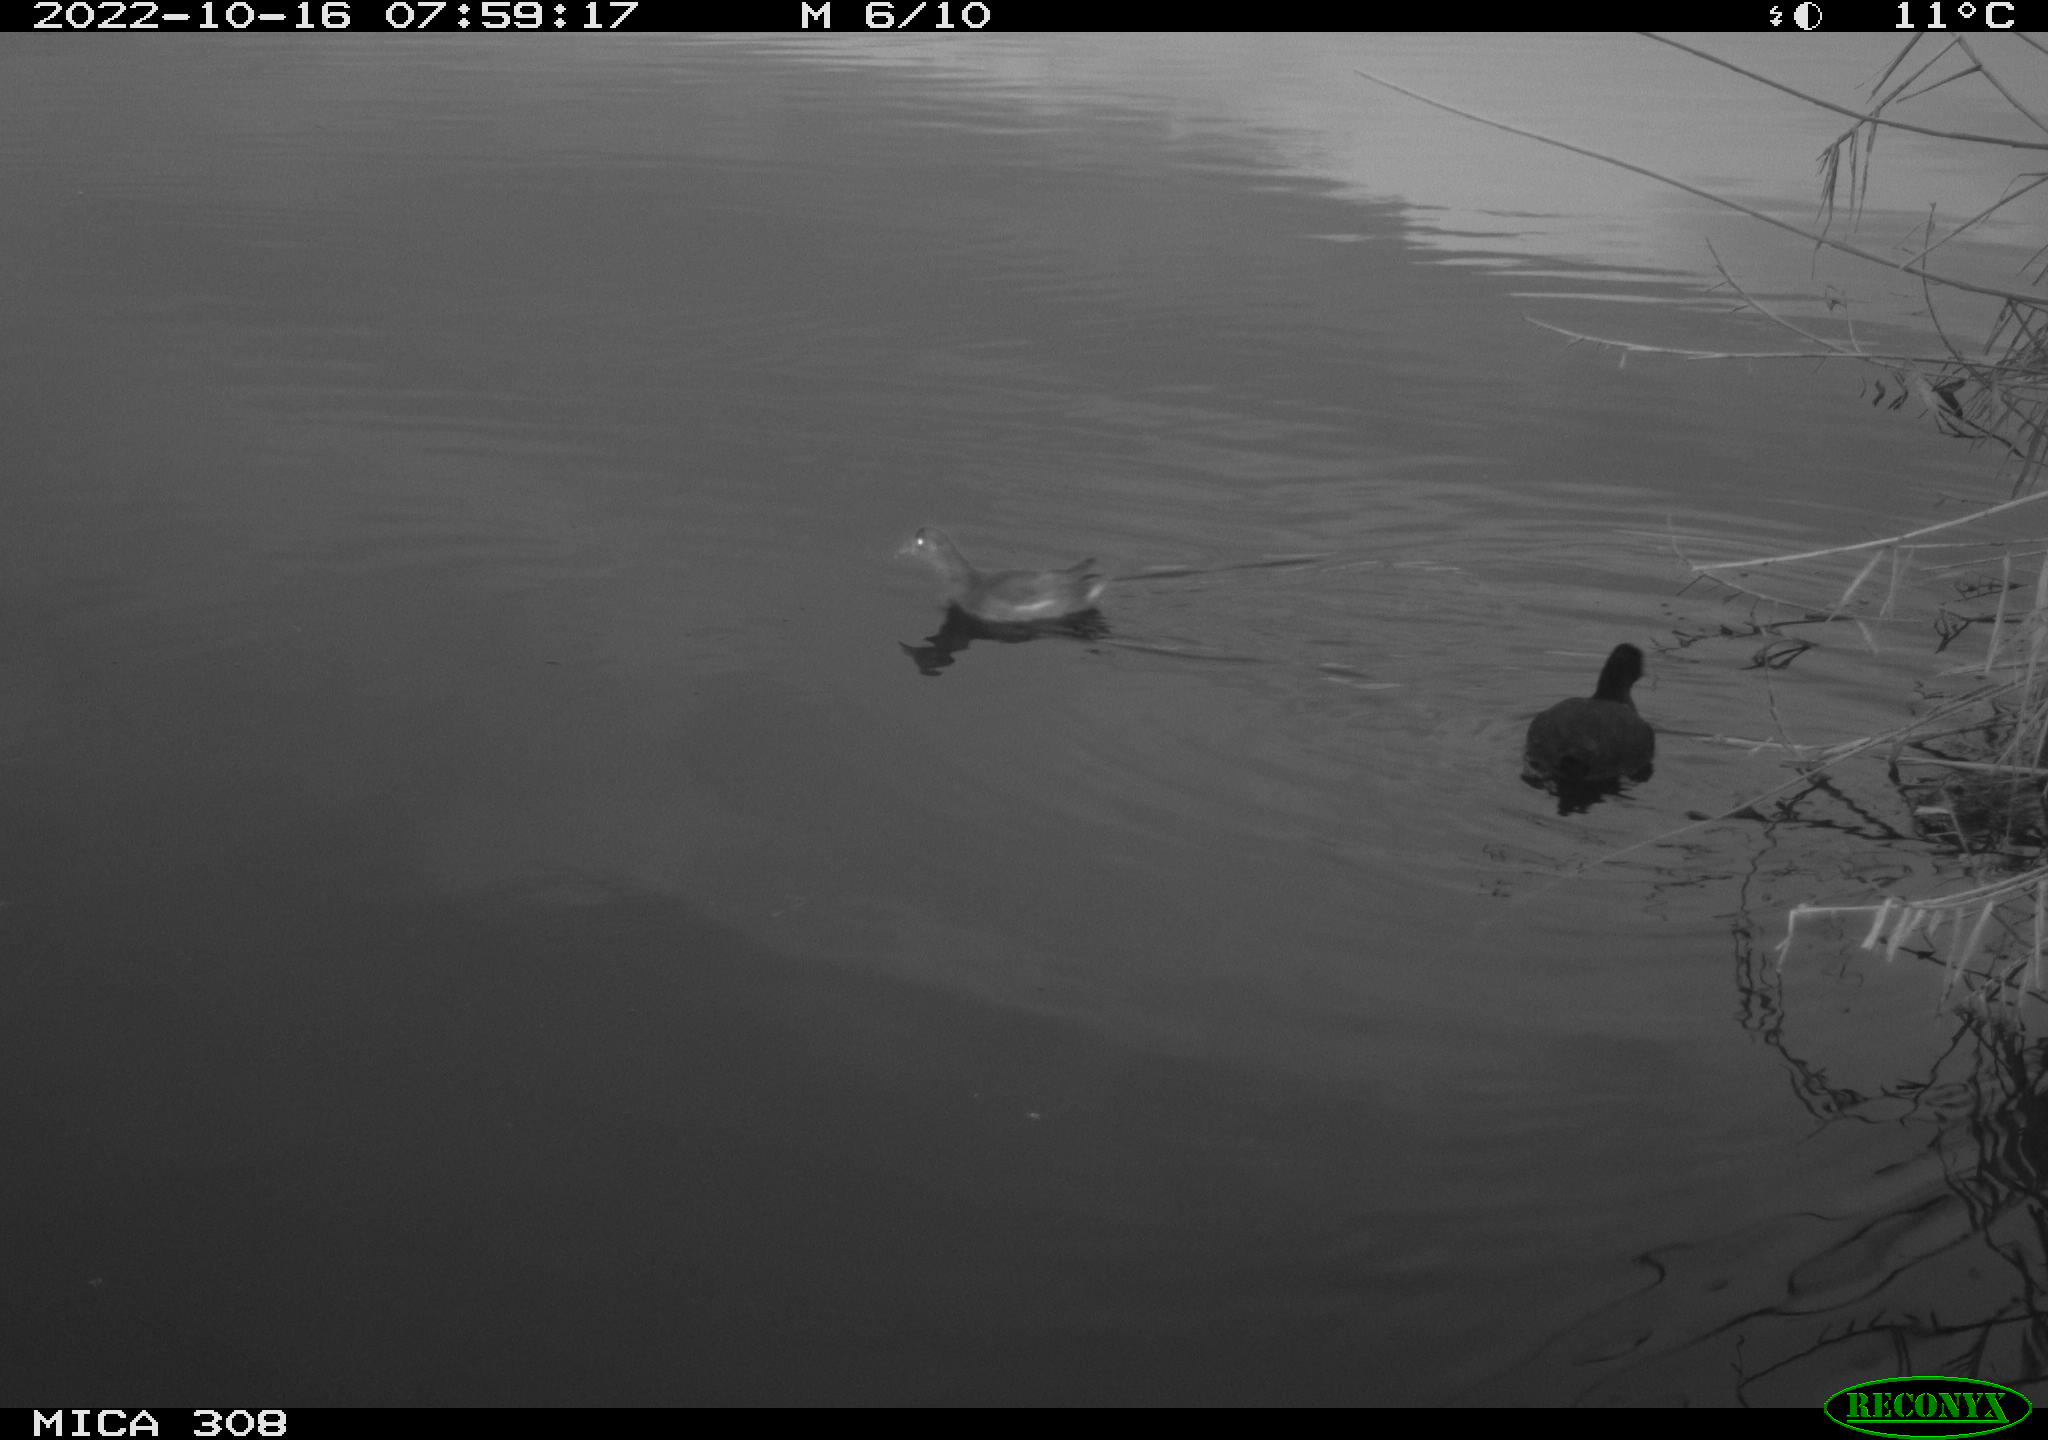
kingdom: Animalia
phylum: Chordata
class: Aves
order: Gruiformes
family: Rallidae
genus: Fulica
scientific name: Fulica atra
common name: Eurasian coot
